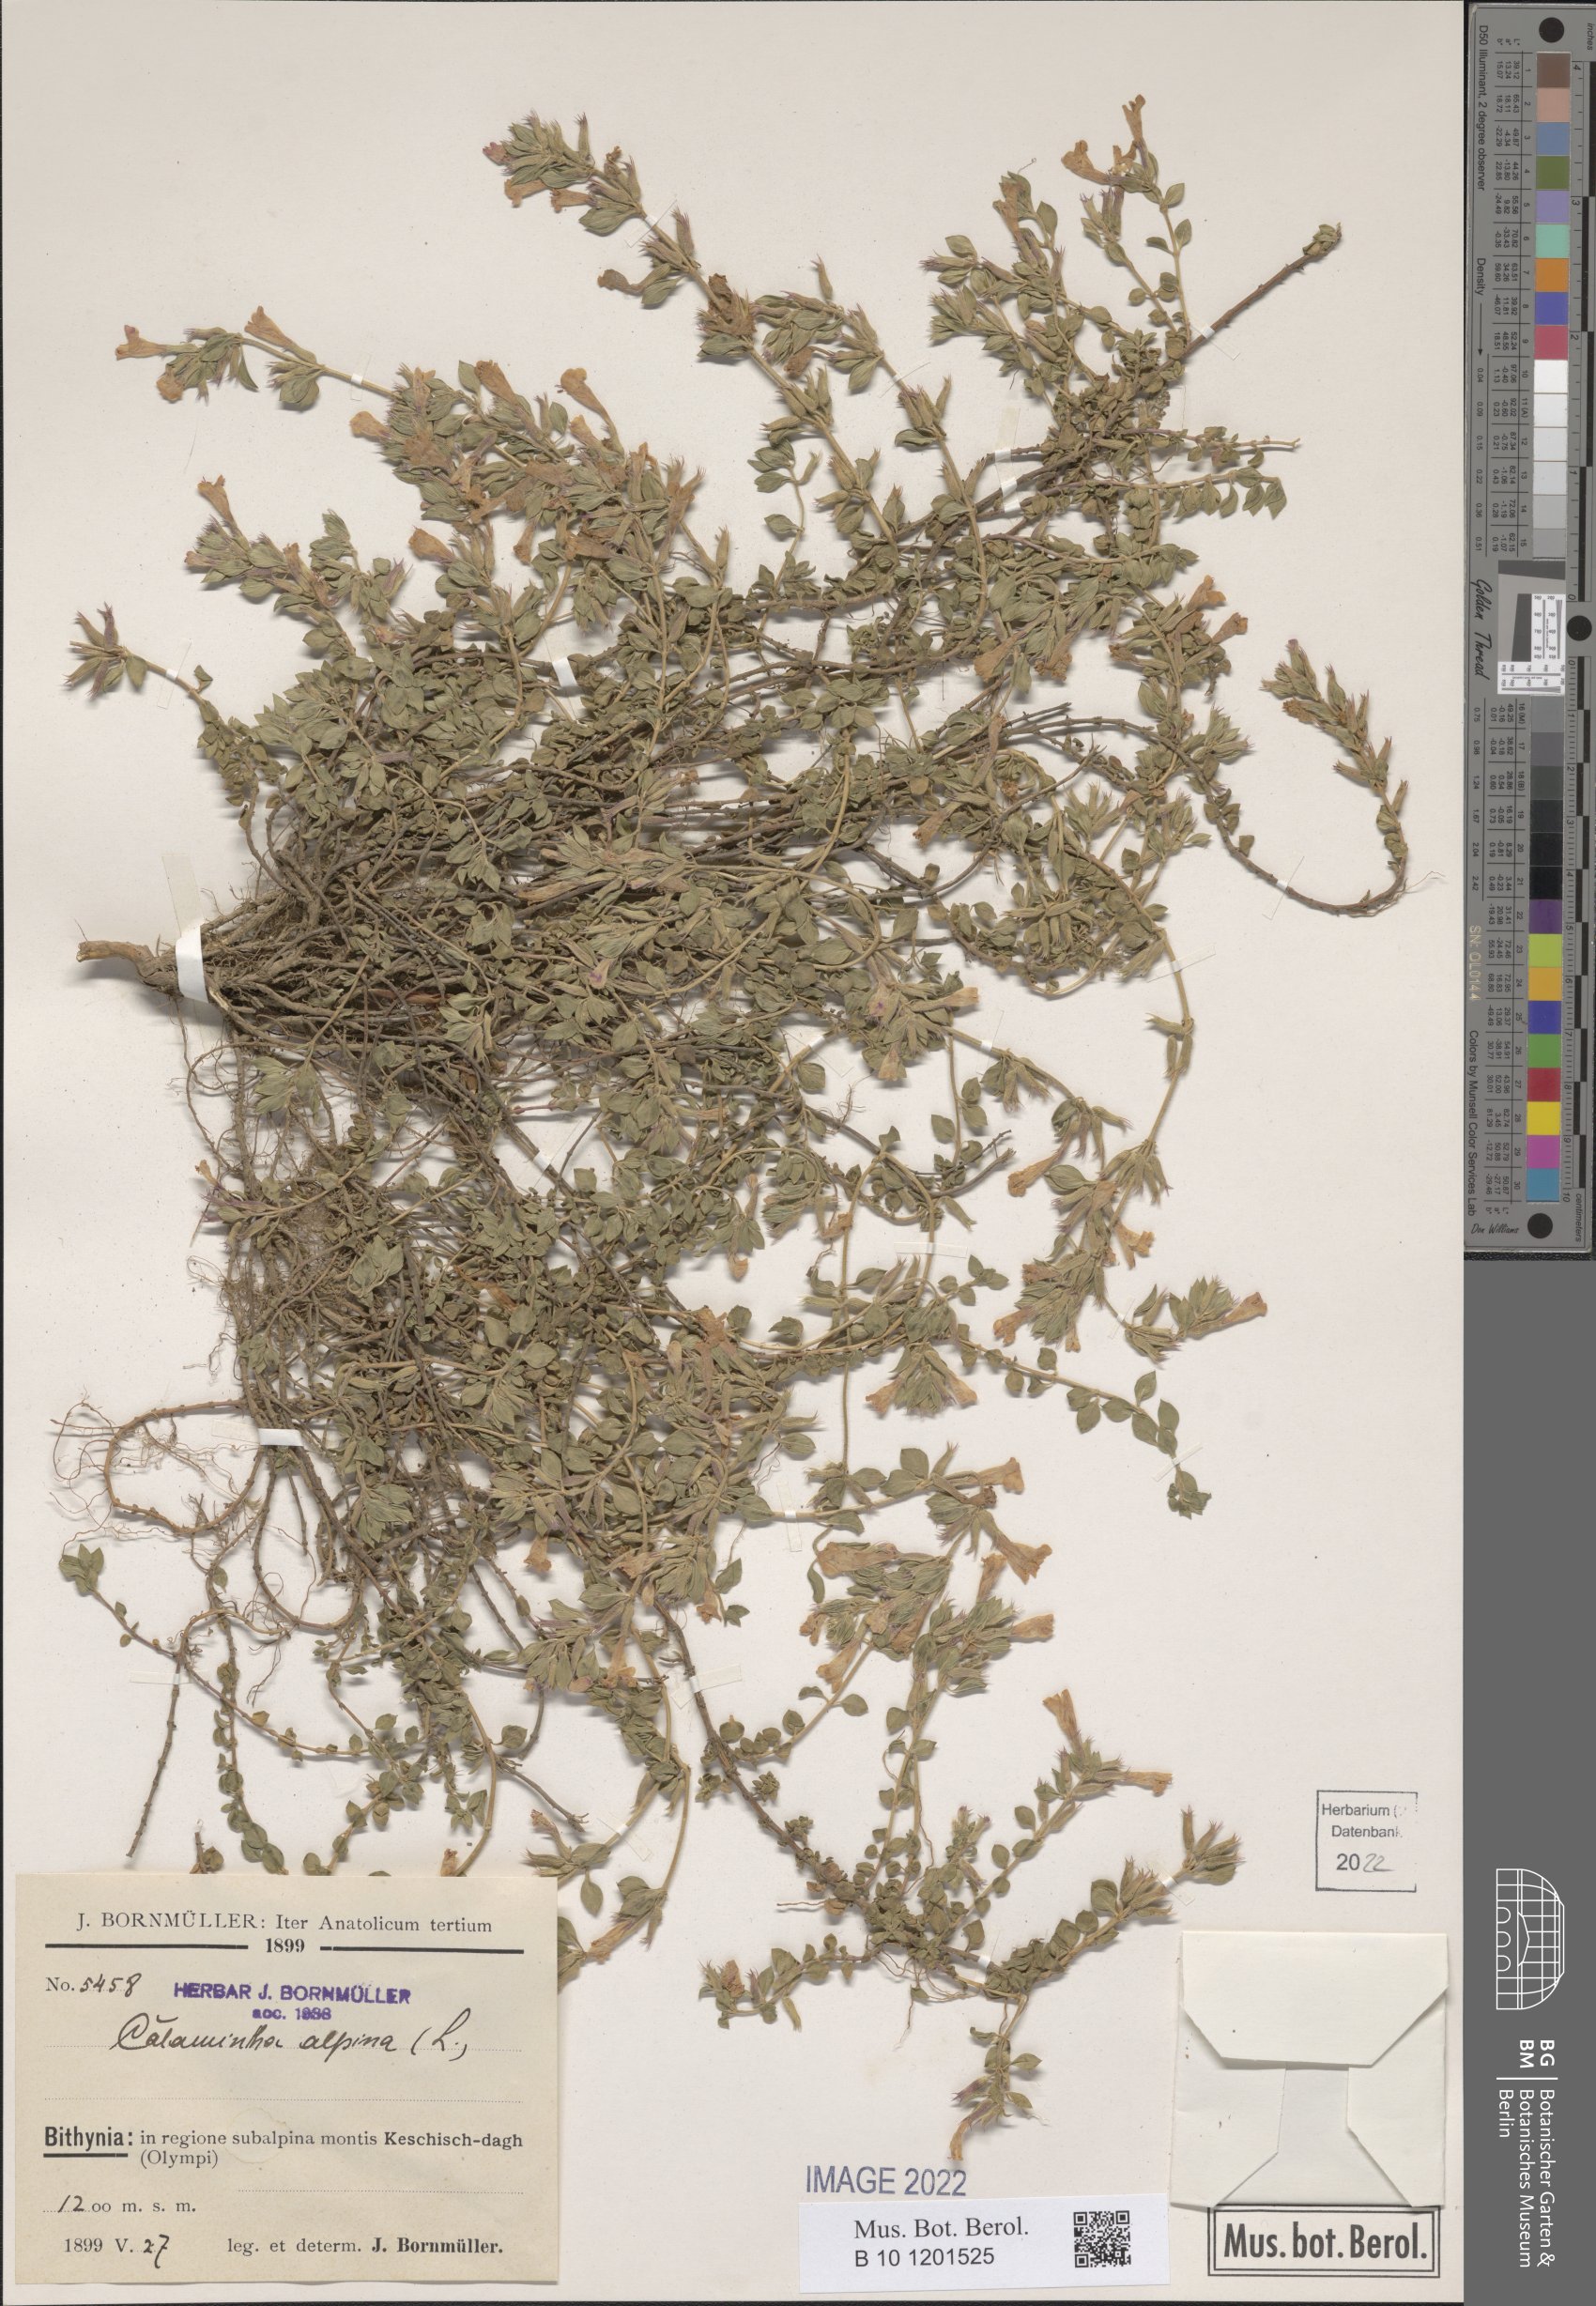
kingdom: Plantae
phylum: Tracheophyta
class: Magnoliopsida
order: Lamiales
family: Lamiaceae
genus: Clinopodium
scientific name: Clinopodium alpinum
